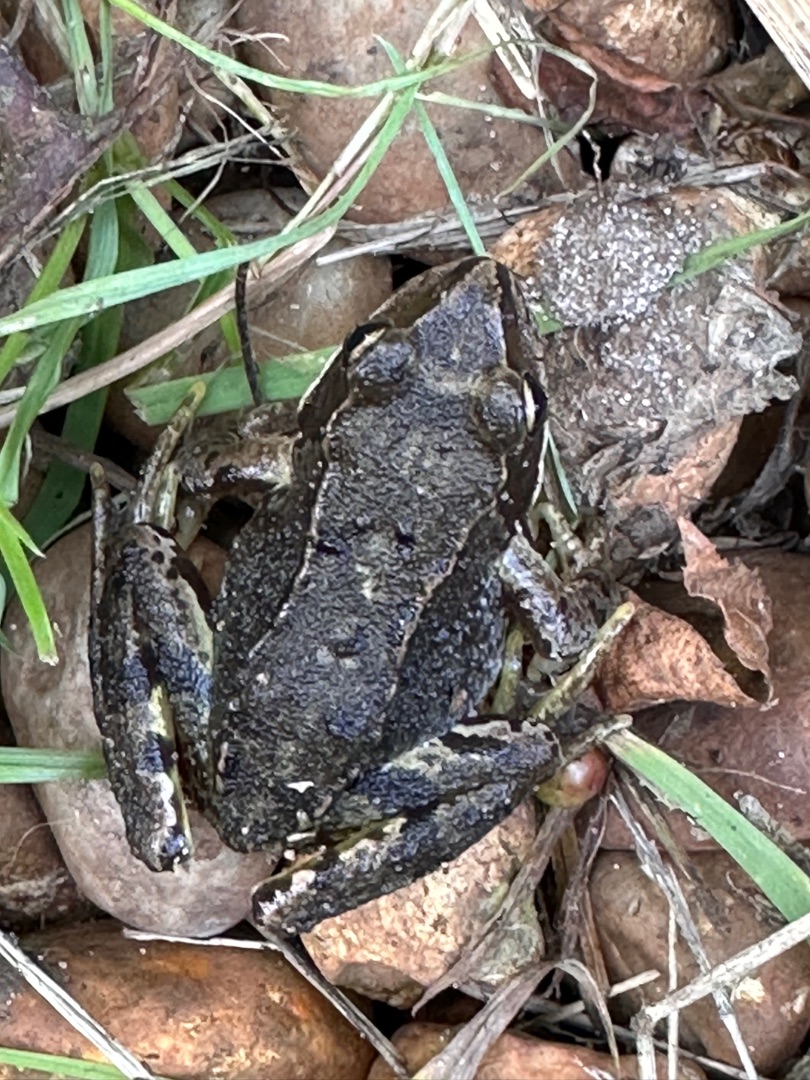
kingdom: Animalia
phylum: Chordata
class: Amphibia
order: Anura
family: Ranidae
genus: Rana
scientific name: Rana temporaria
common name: Butsnudet frø
